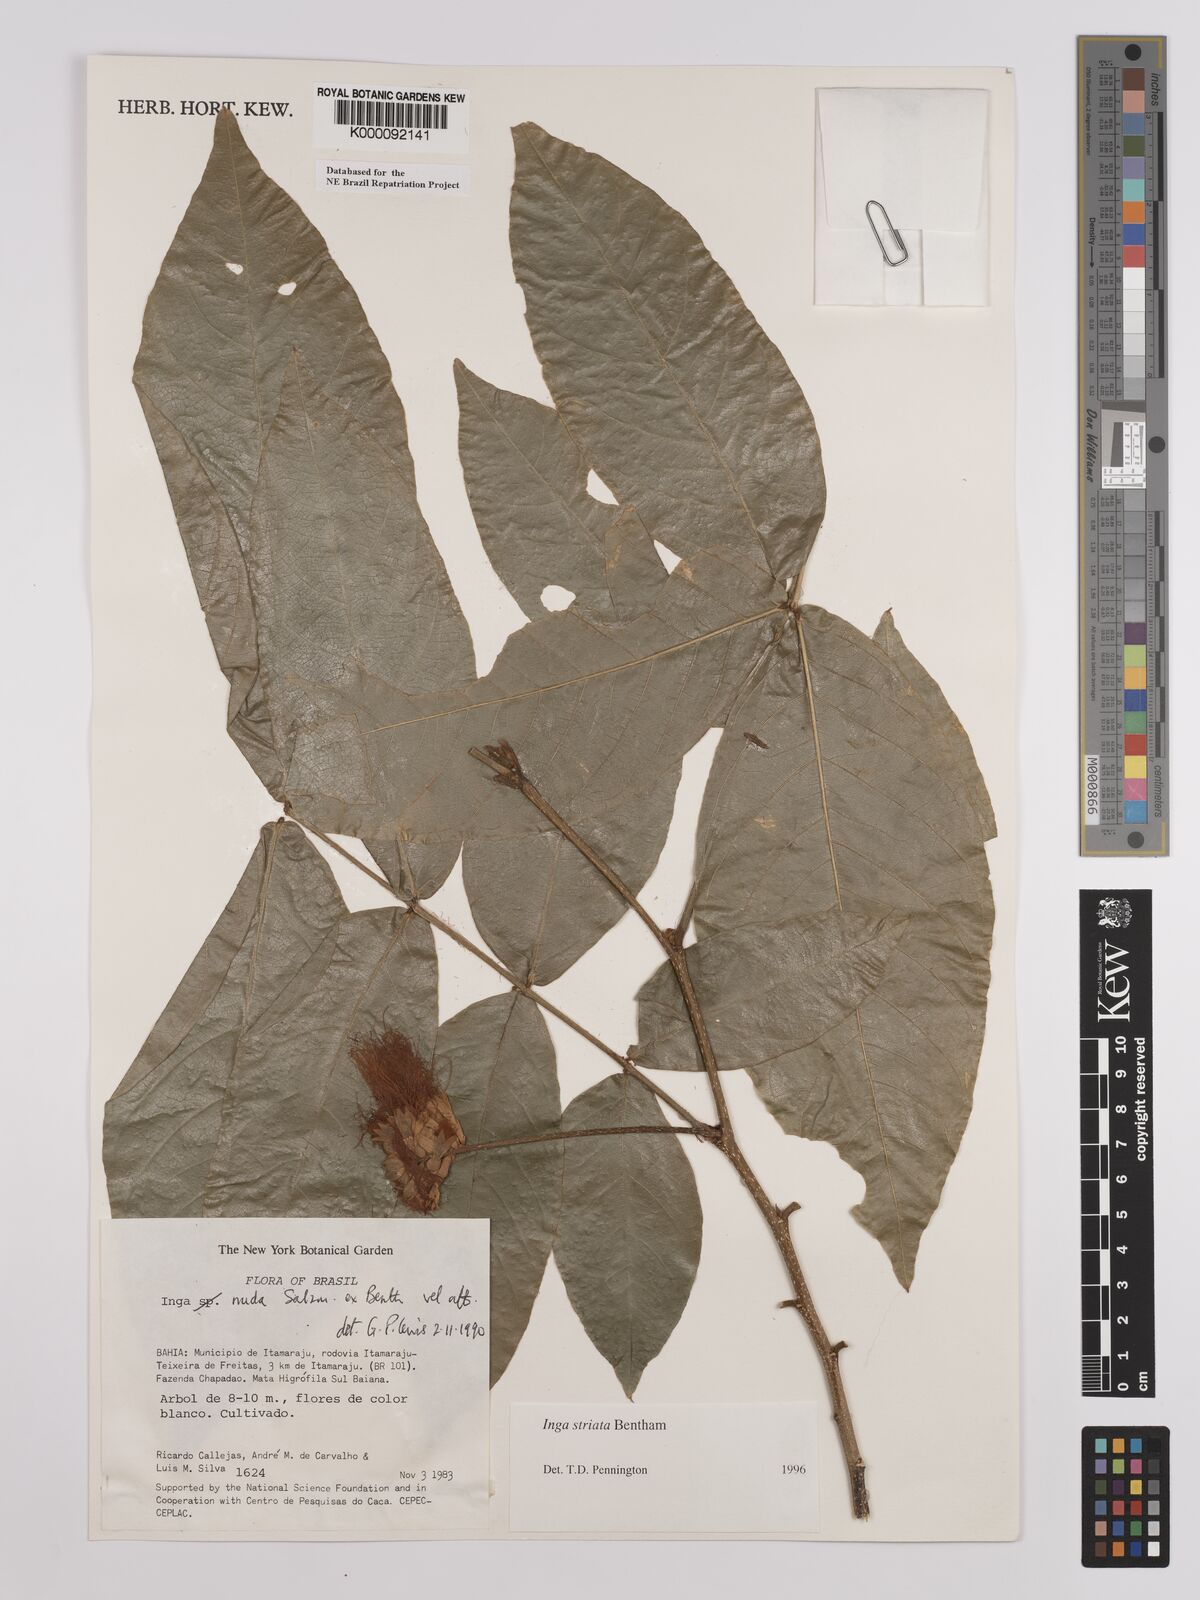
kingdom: Plantae
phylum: Tracheophyta
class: Magnoliopsida
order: Fabales
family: Fabaceae
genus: Inga
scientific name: Inga striata
